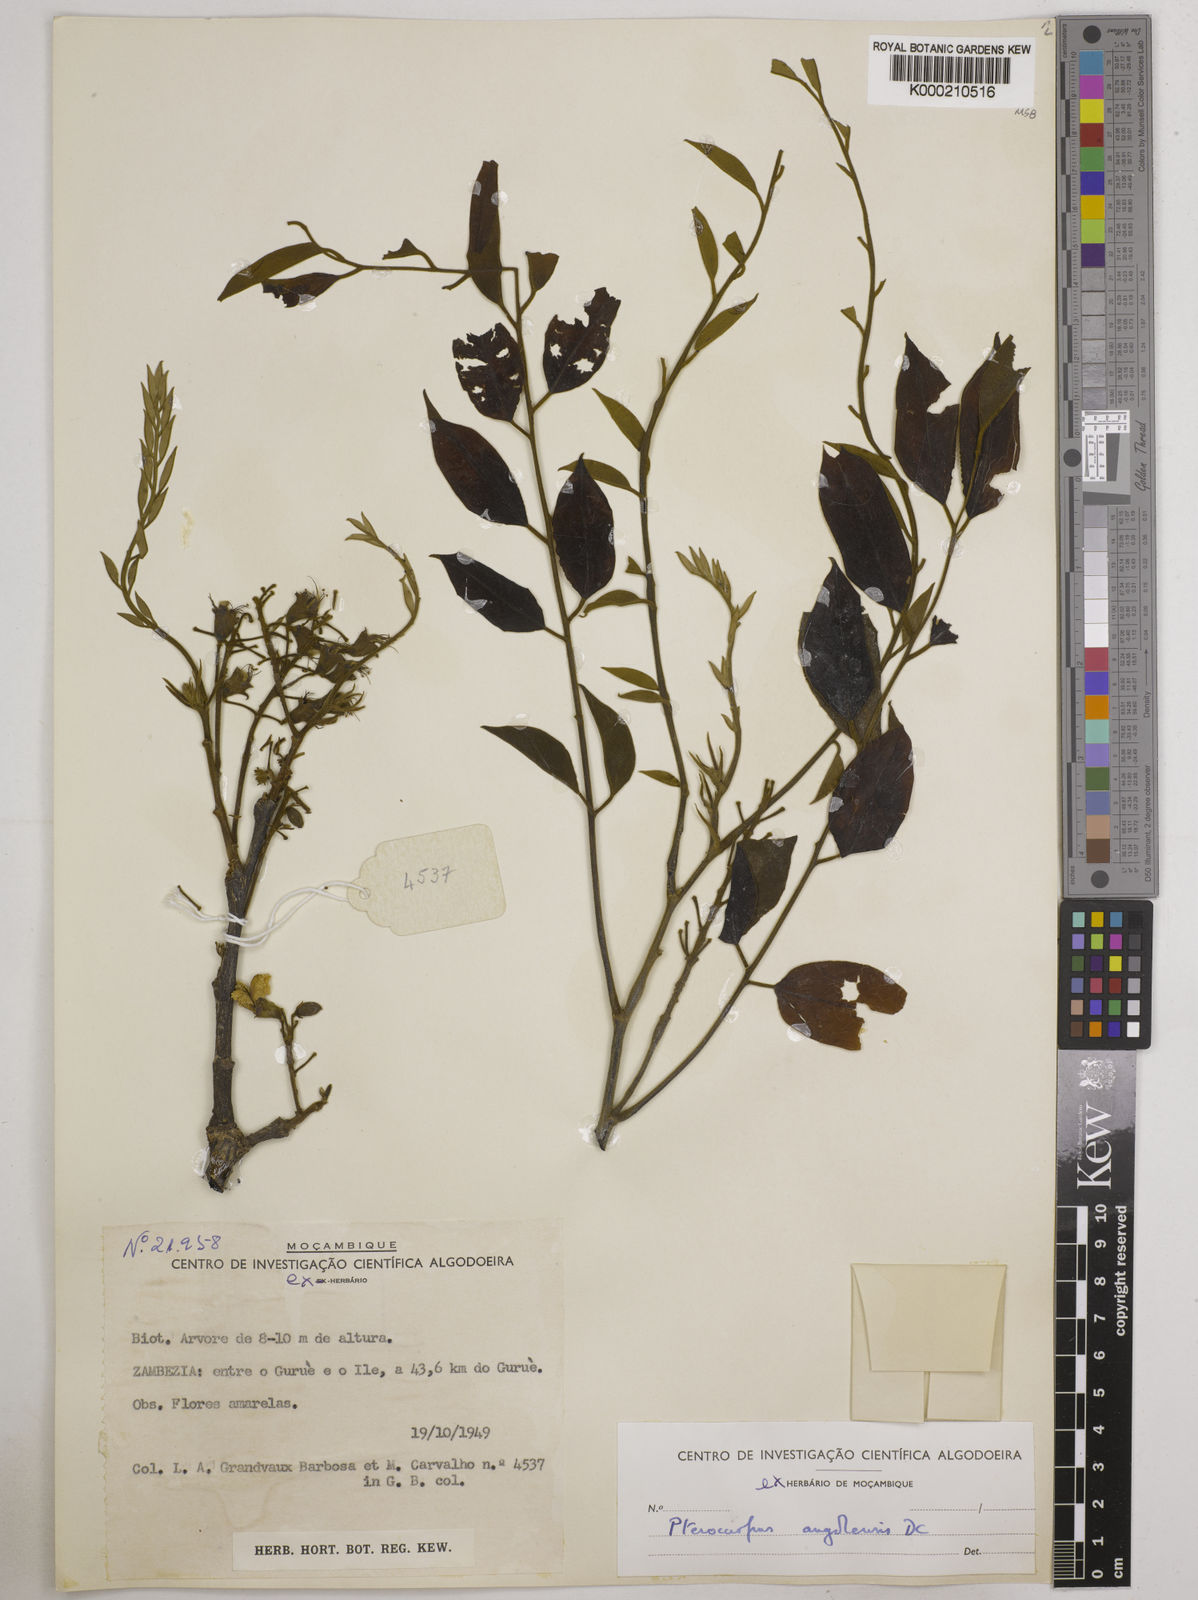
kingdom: Plantae
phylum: Tracheophyta
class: Magnoliopsida
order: Fabales
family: Fabaceae
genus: Pterocarpus
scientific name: Pterocarpus angolensis
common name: Bloodwood tree
